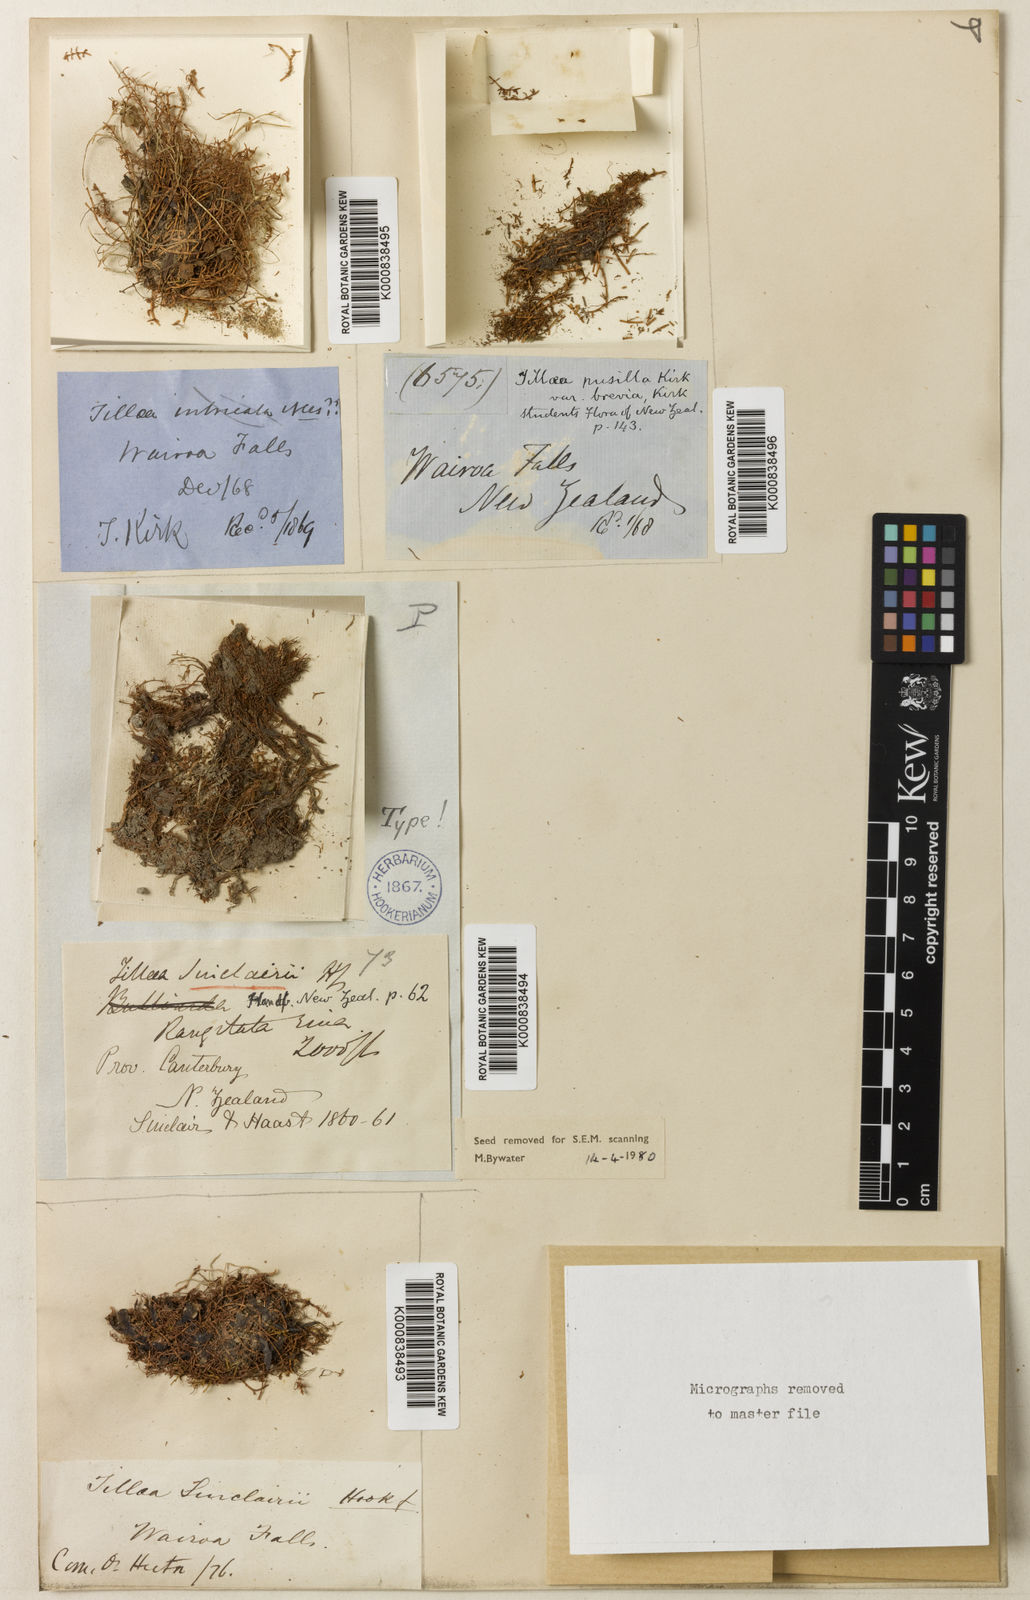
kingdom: Plantae
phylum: Tracheophyta
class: Magnoliopsida
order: Saxifragales
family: Crassulaceae
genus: Crassula
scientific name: Crassula sinclairii
